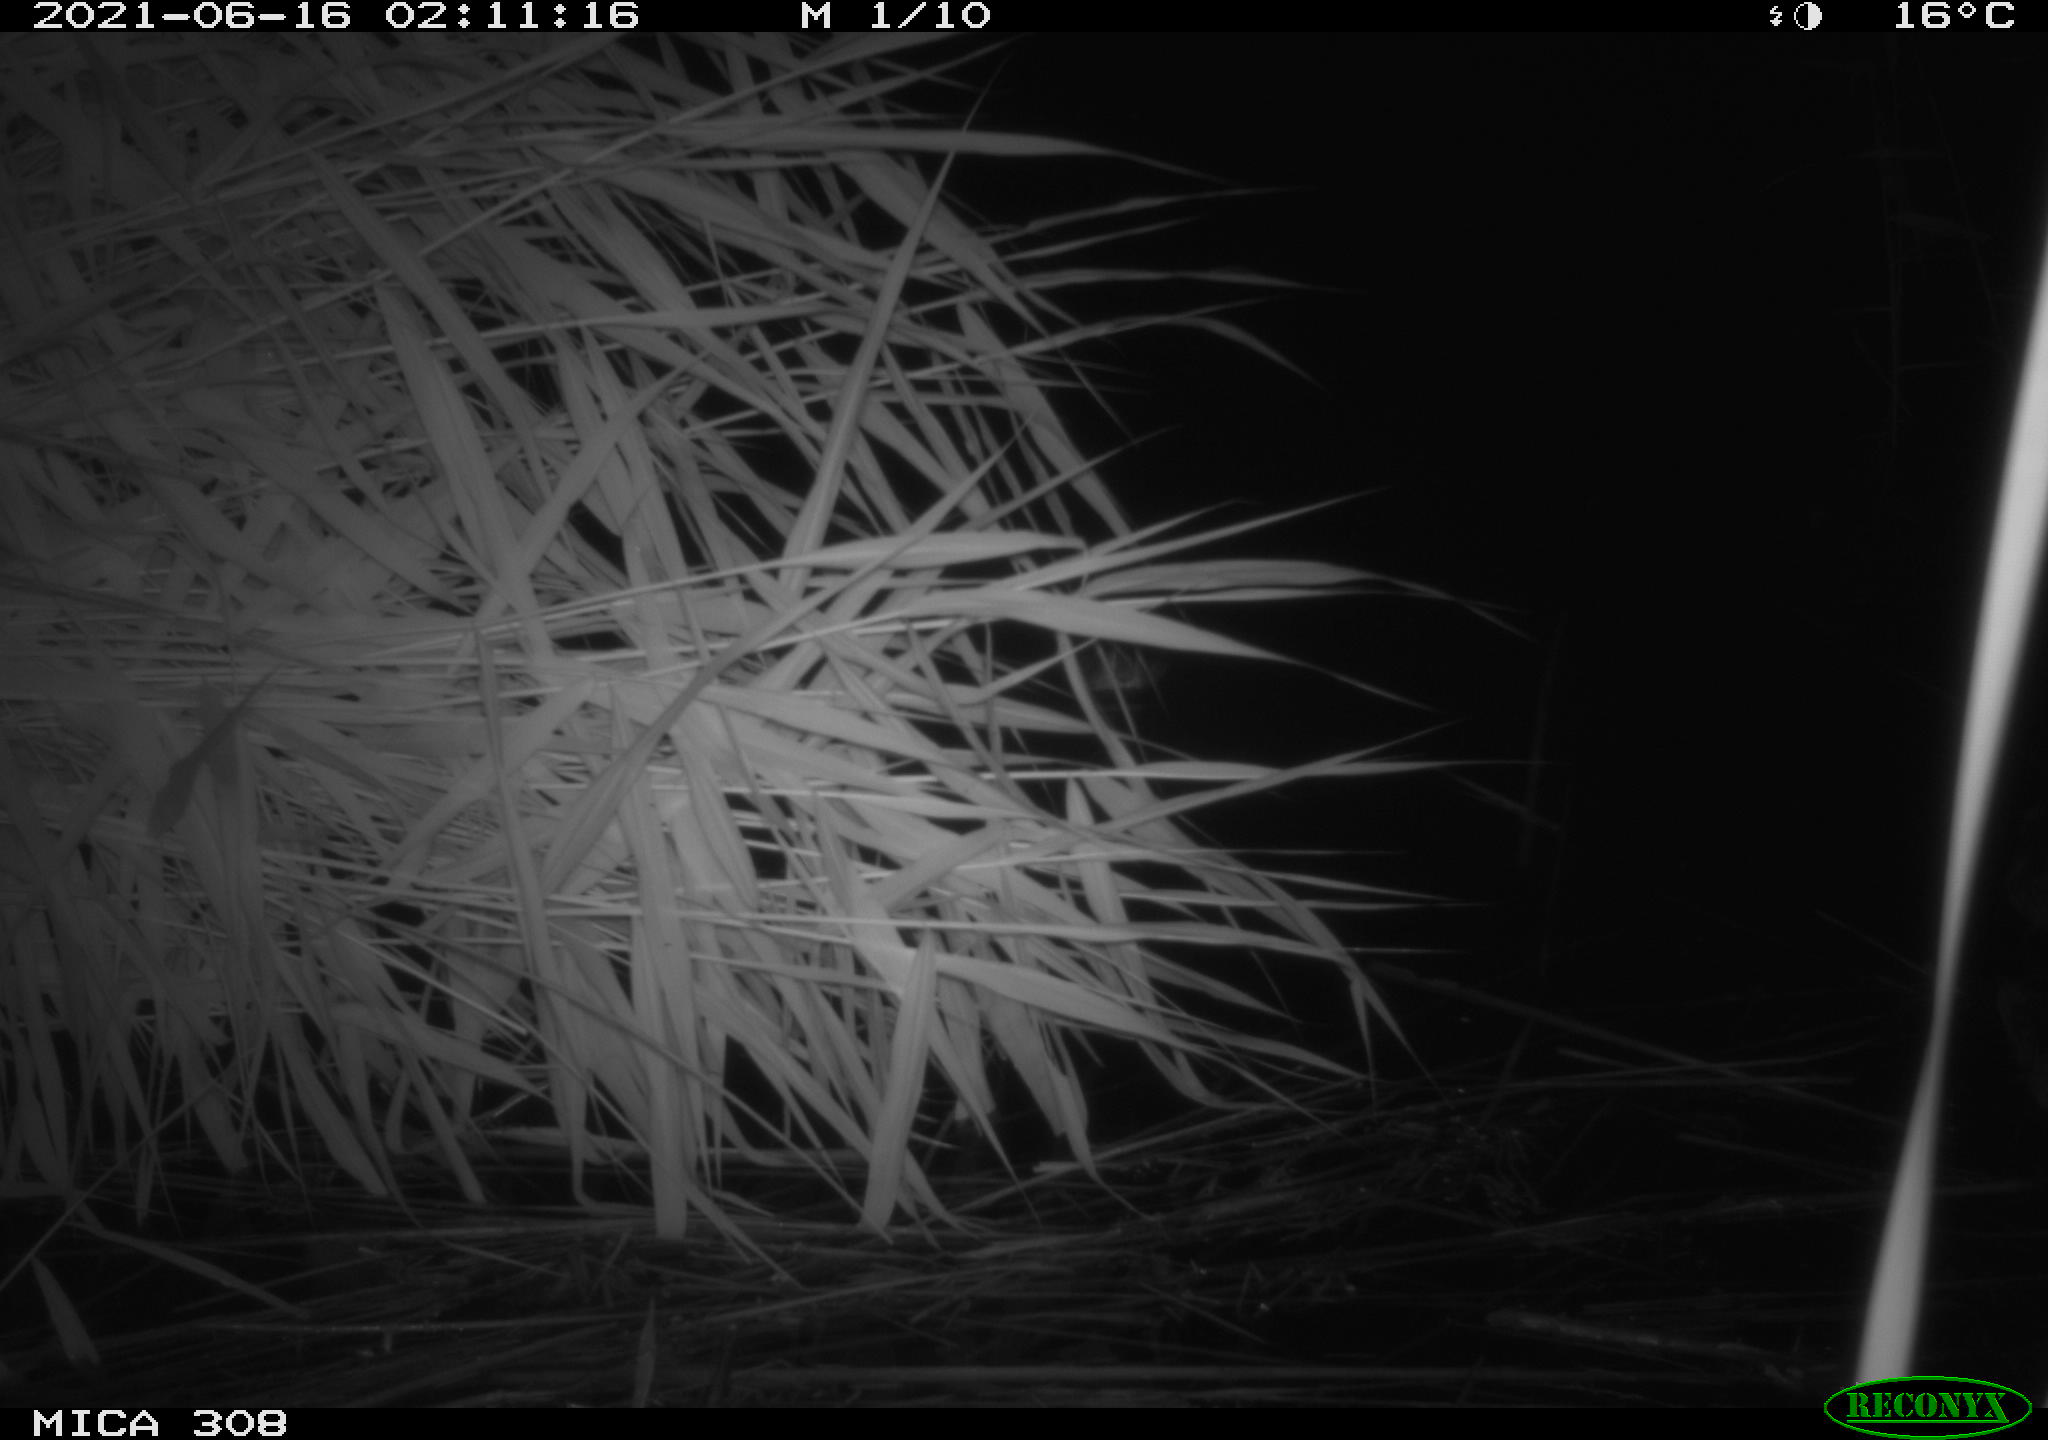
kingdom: Animalia
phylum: Chordata
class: Aves
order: Anseriformes
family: Anatidae
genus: Anas
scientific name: Anas platyrhynchos
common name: Mallard
